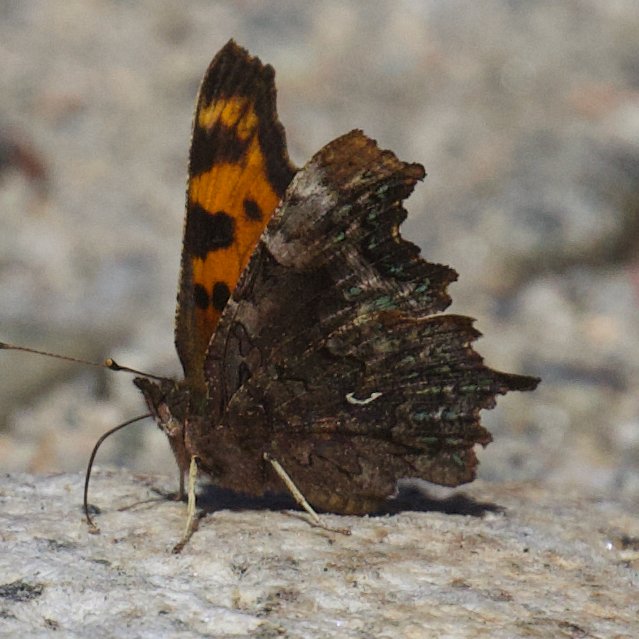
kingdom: Animalia
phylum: Arthropoda
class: Insecta
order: Lepidoptera
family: Nymphalidae
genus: Polygonia
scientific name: Polygonia faunus
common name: Green Comma
